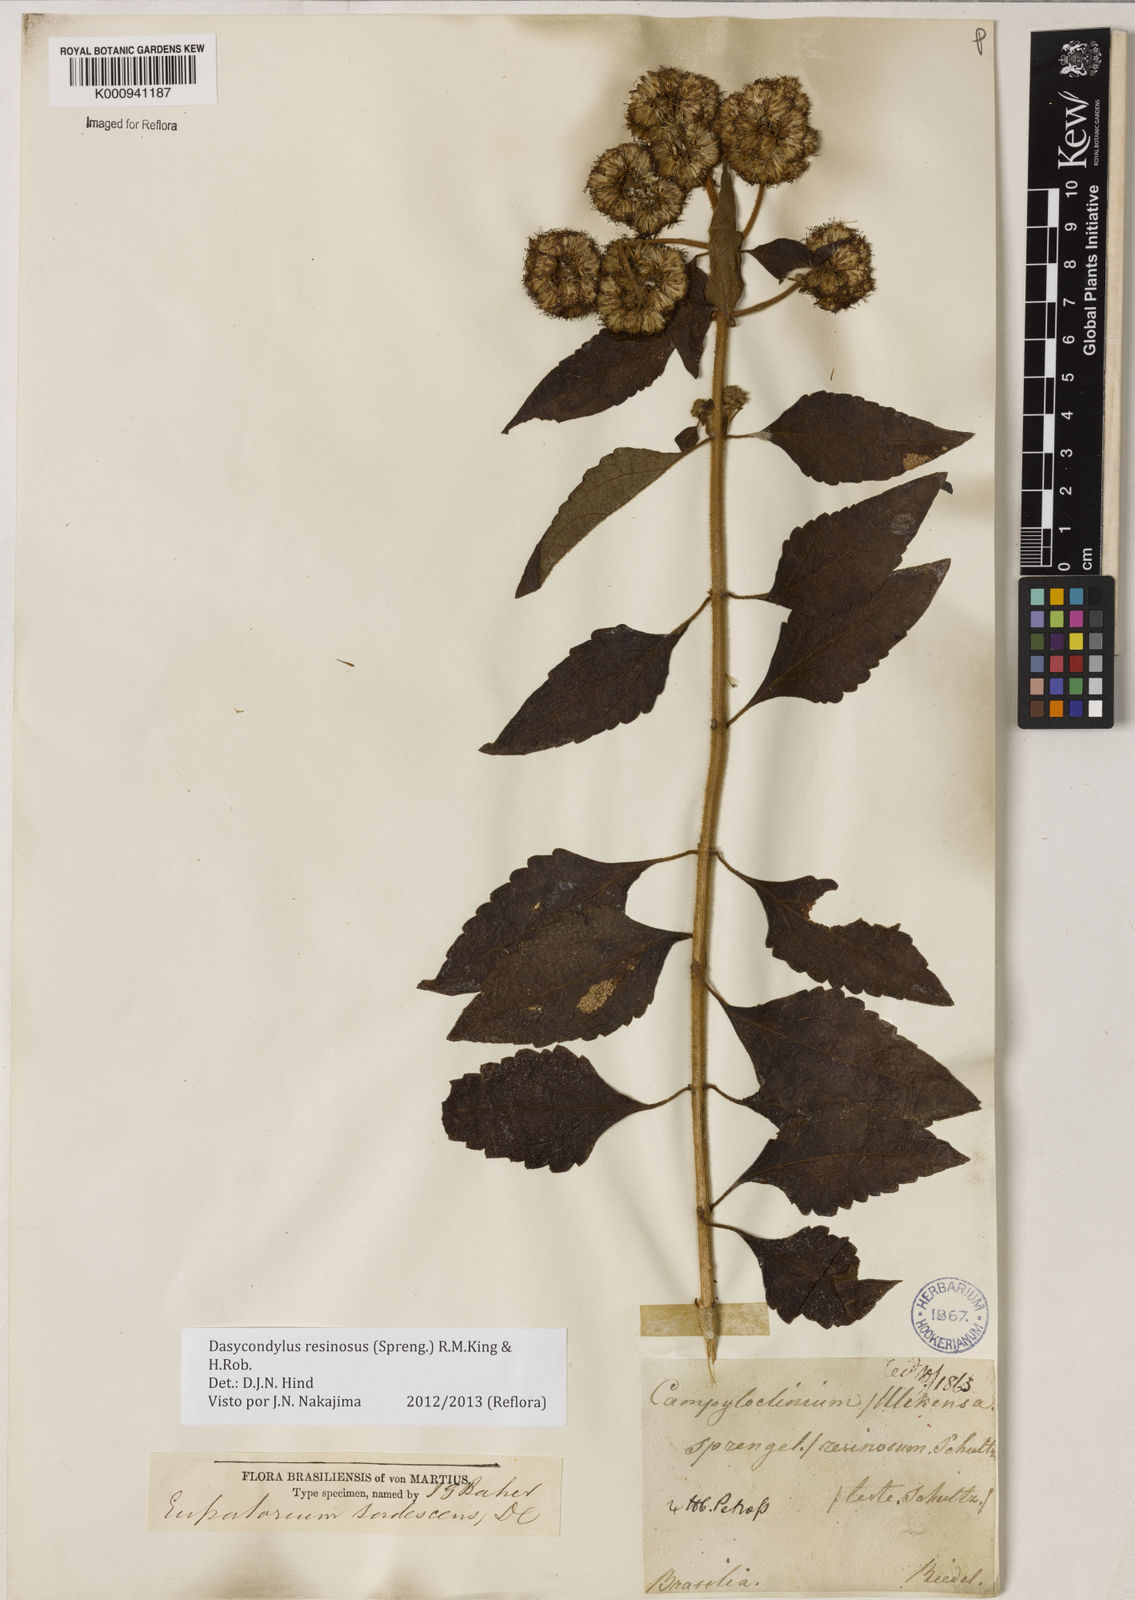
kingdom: Plantae
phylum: Tracheophyta
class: Magnoliopsida
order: Asterales
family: Asteraceae
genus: Dasycondylus
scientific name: Dasycondylus resinosus
